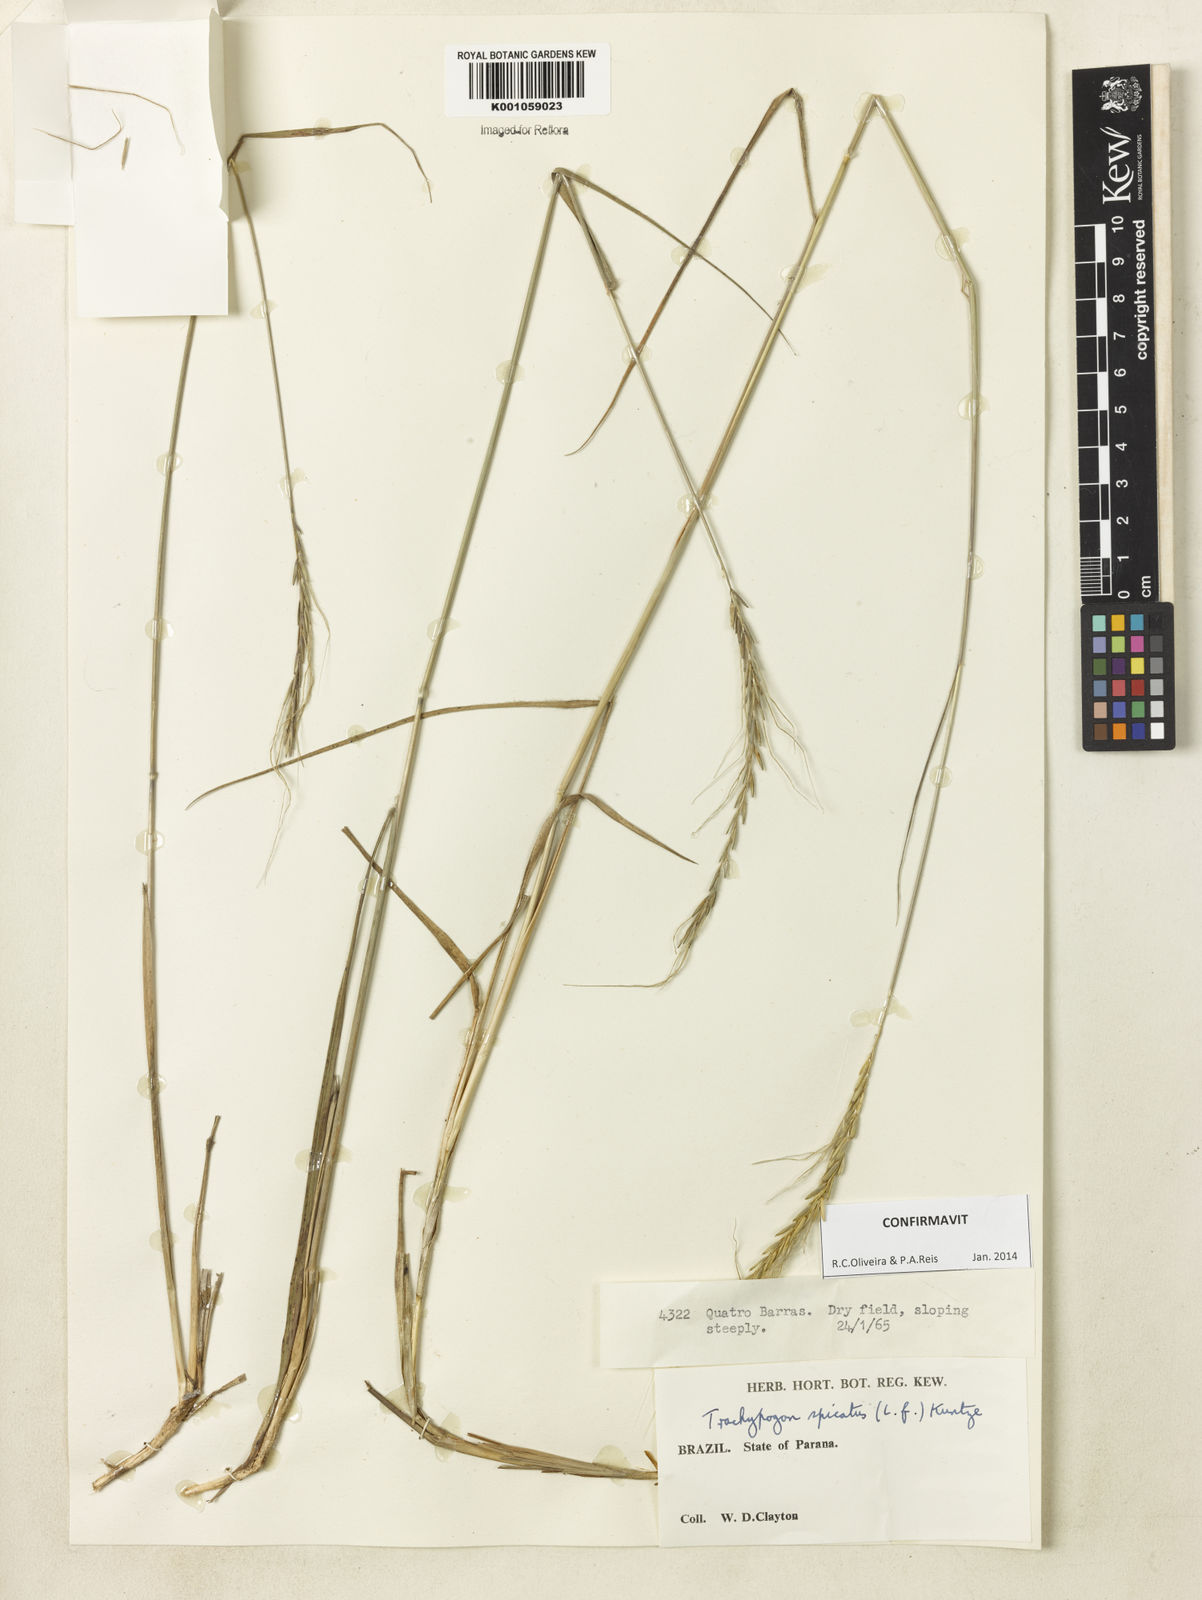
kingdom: Plantae
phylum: Tracheophyta
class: Liliopsida
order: Poales
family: Poaceae
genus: Trachypogon
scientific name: Trachypogon spicatus
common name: Crinkle-awn
